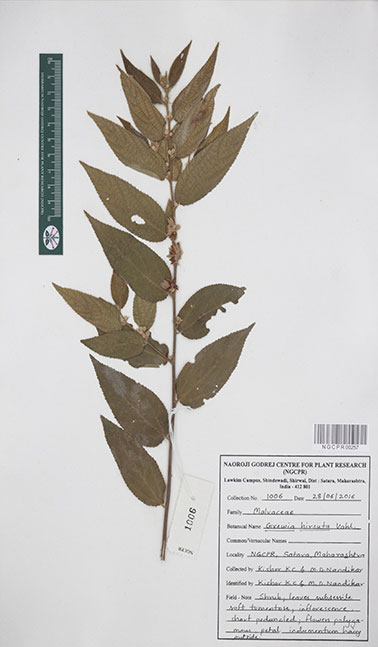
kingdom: Plantae
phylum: Tracheophyta
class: Magnoliopsida
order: Malvales
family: Malvaceae
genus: Grewia
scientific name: Grewia hirsuta
